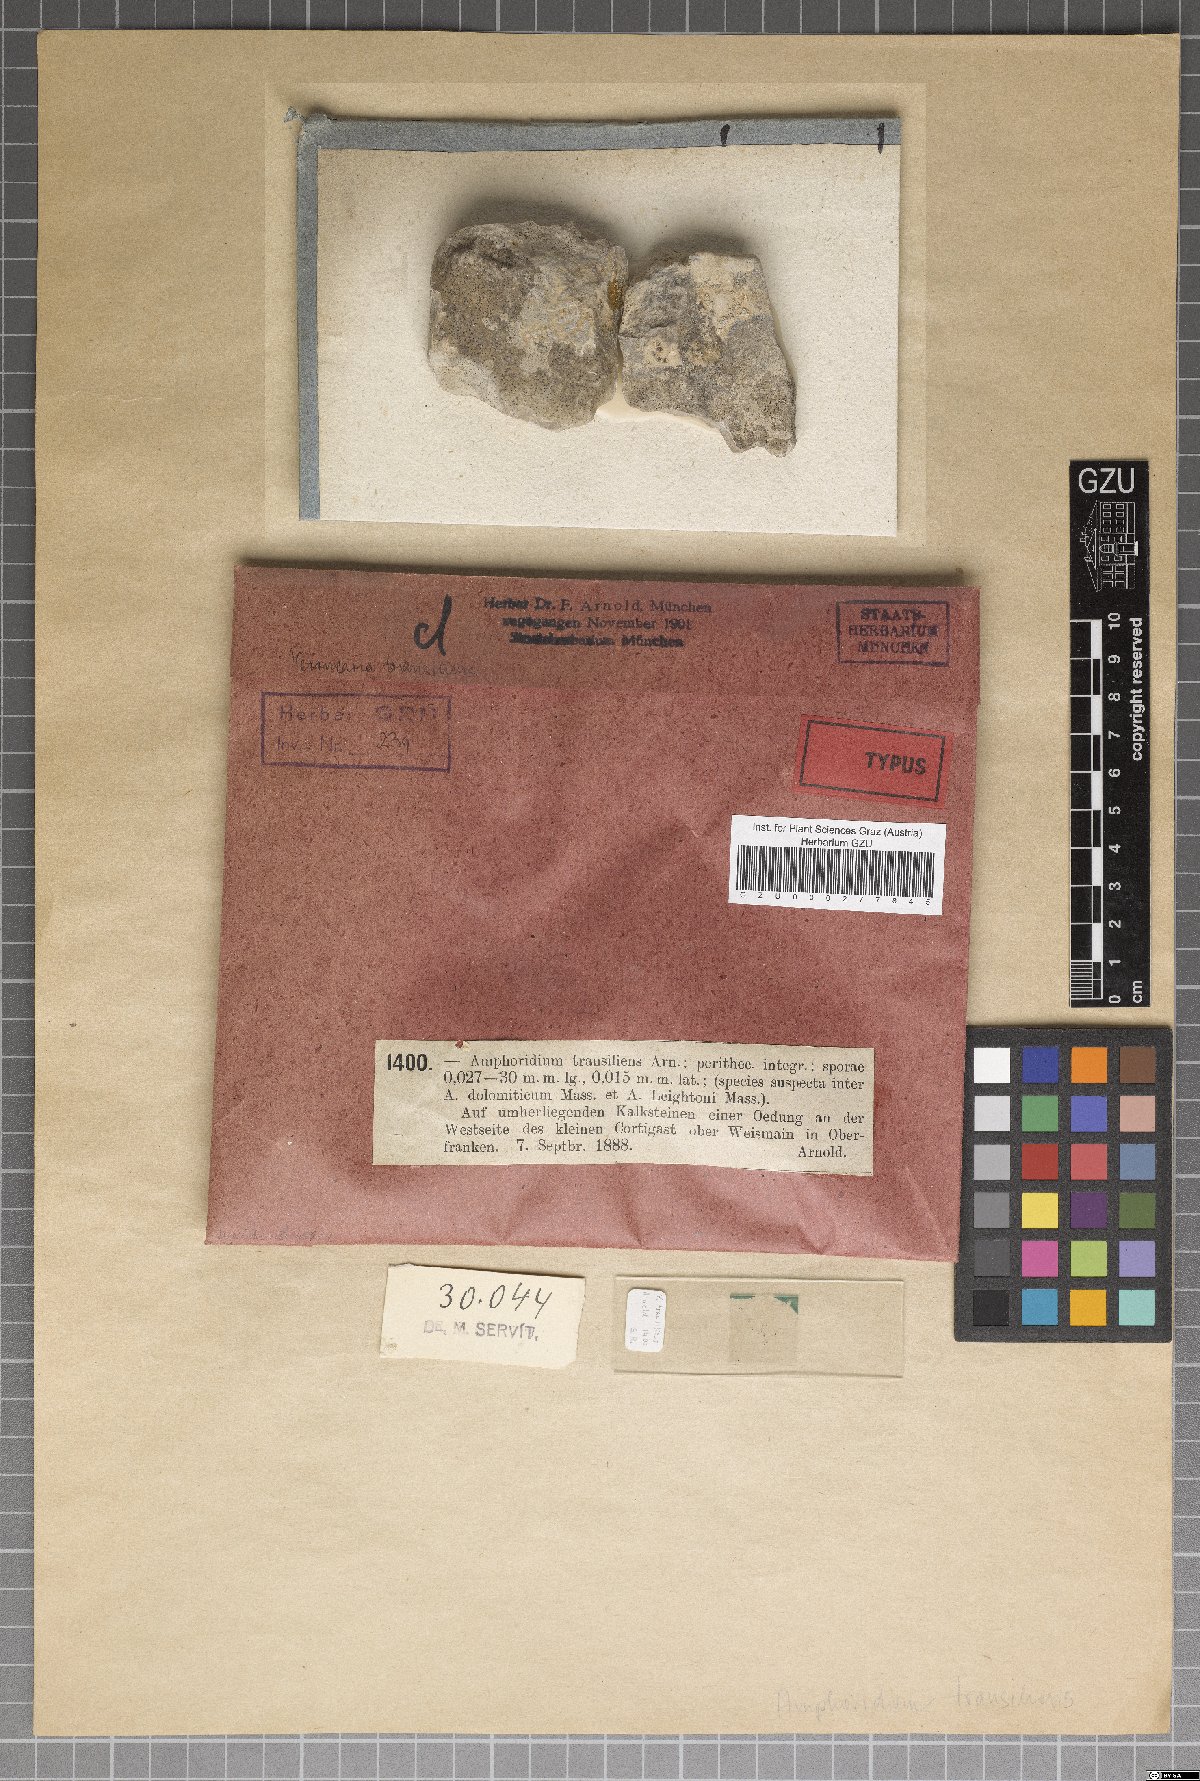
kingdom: Fungi
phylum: Ascomycota
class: Eurotiomycetes
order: Verrucariales
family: Verrucariaceae
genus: Verrucaria
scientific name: Verrucaria transiliens
